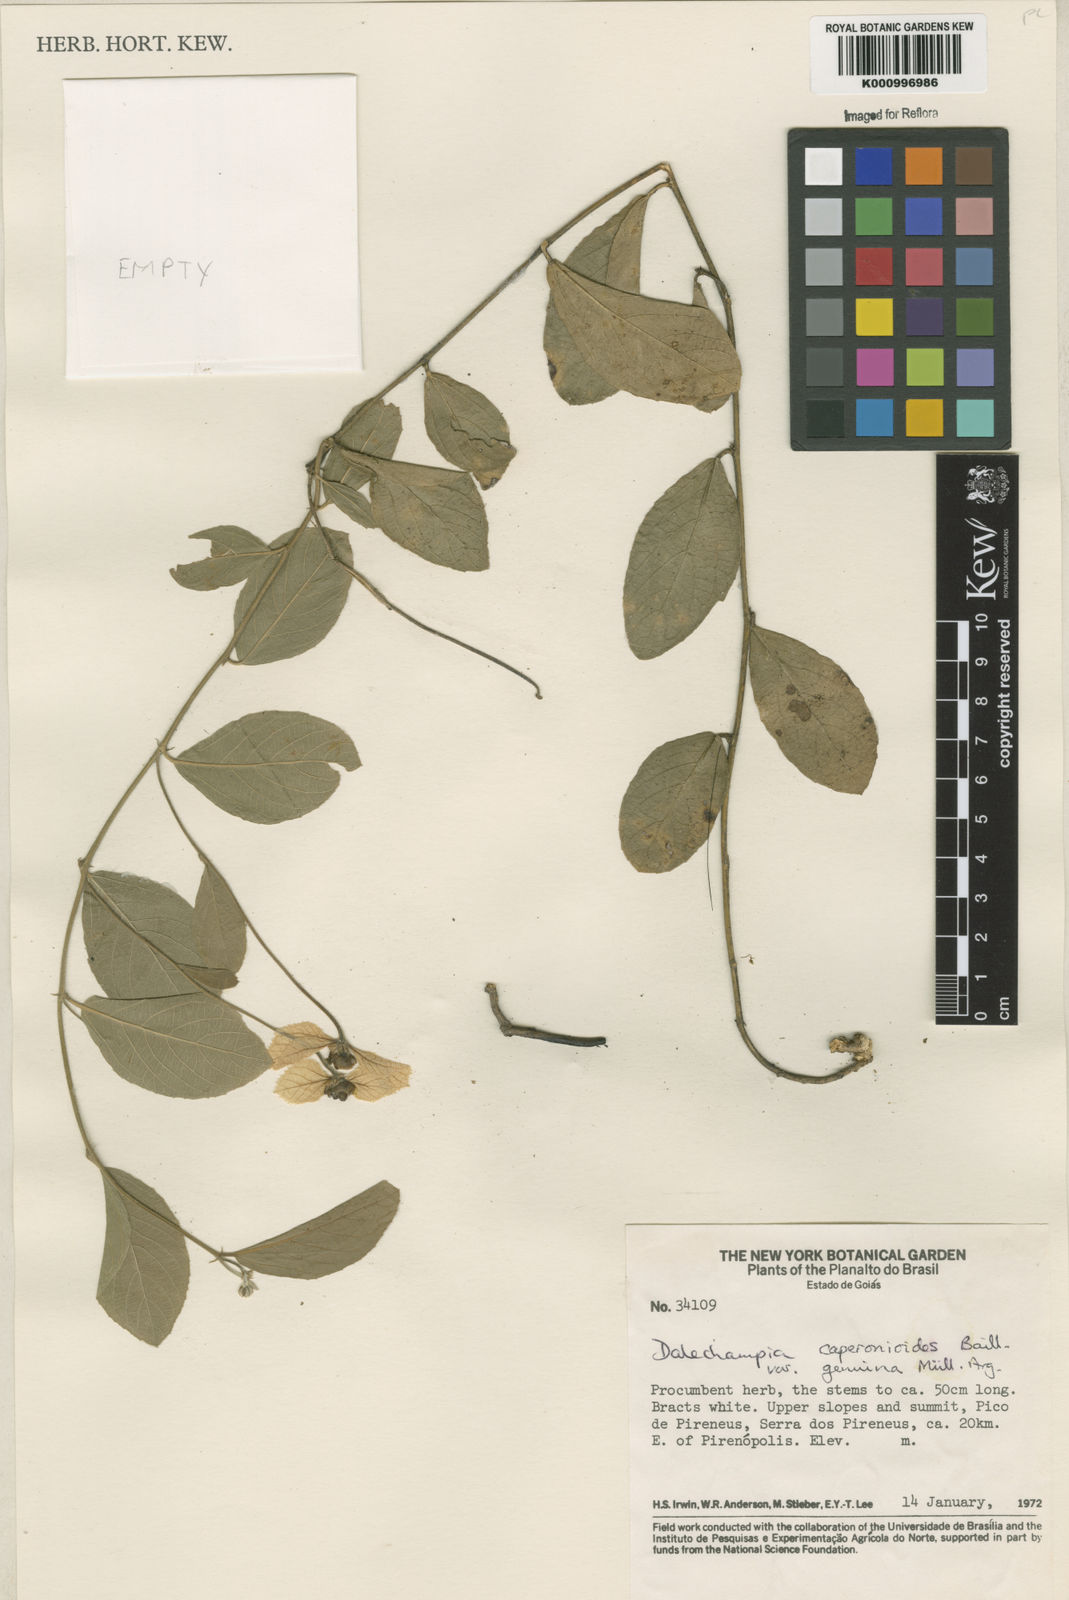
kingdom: Plantae
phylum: Tracheophyta
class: Magnoliopsida
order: Malpighiales
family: Euphorbiaceae
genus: Dalechampia
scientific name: Dalechampia caperonioides
